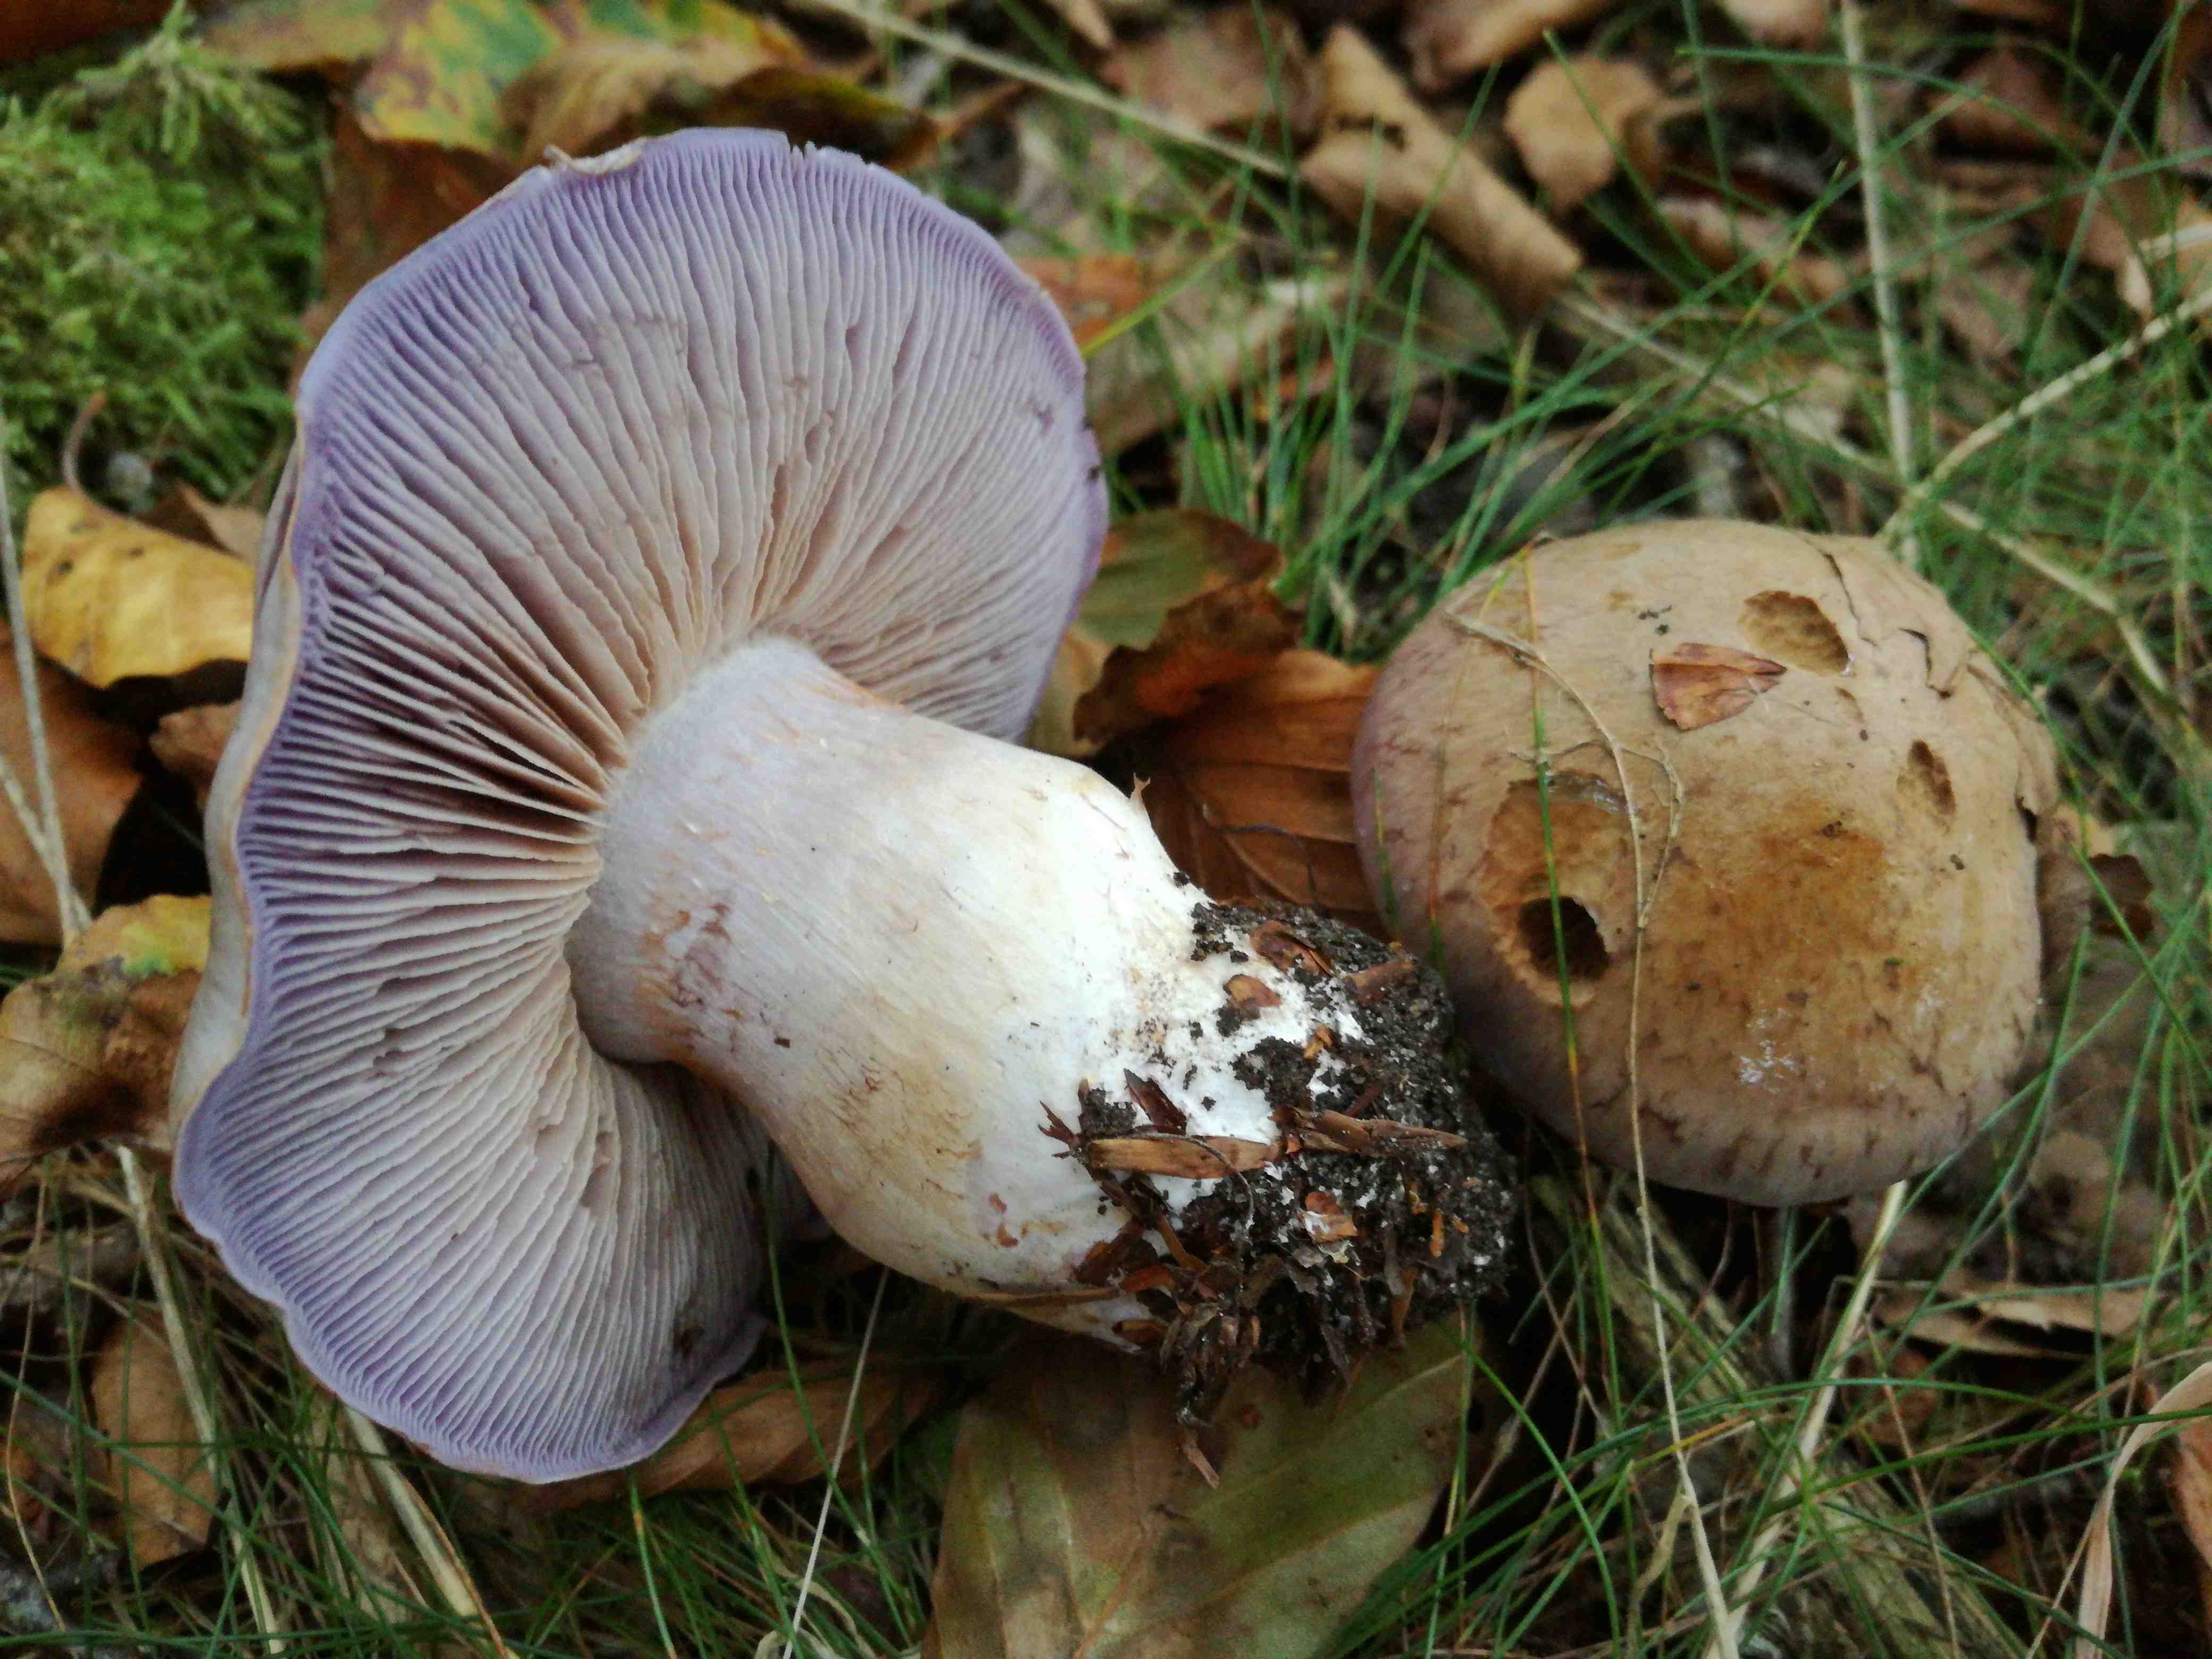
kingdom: Fungi
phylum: Basidiomycota
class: Agaricomycetes
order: Agaricales
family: Cortinariaceae
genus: Cortinarius
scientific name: Cortinarius largus
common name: violetrandet slørhat
